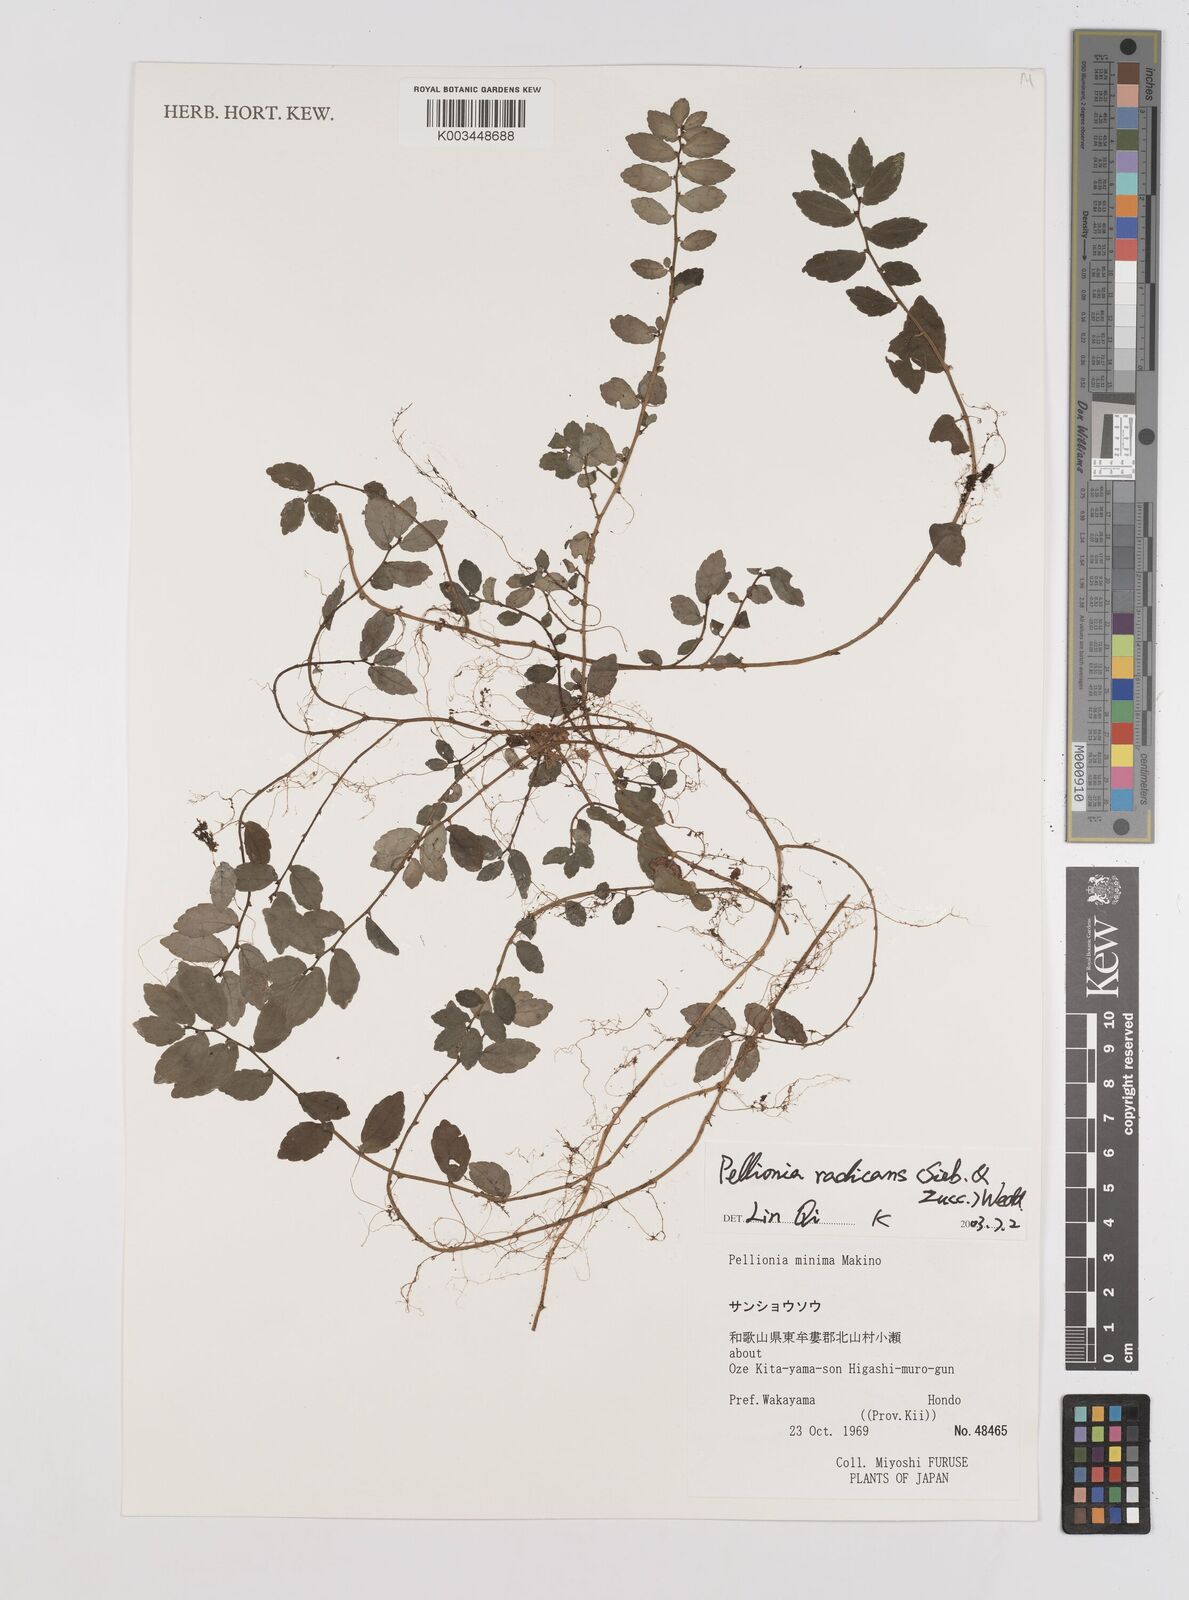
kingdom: Plantae
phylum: Tracheophyta
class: Magnoliopsida
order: Rosales
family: Urticaceae
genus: Elatostema
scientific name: Elatostema radicans
